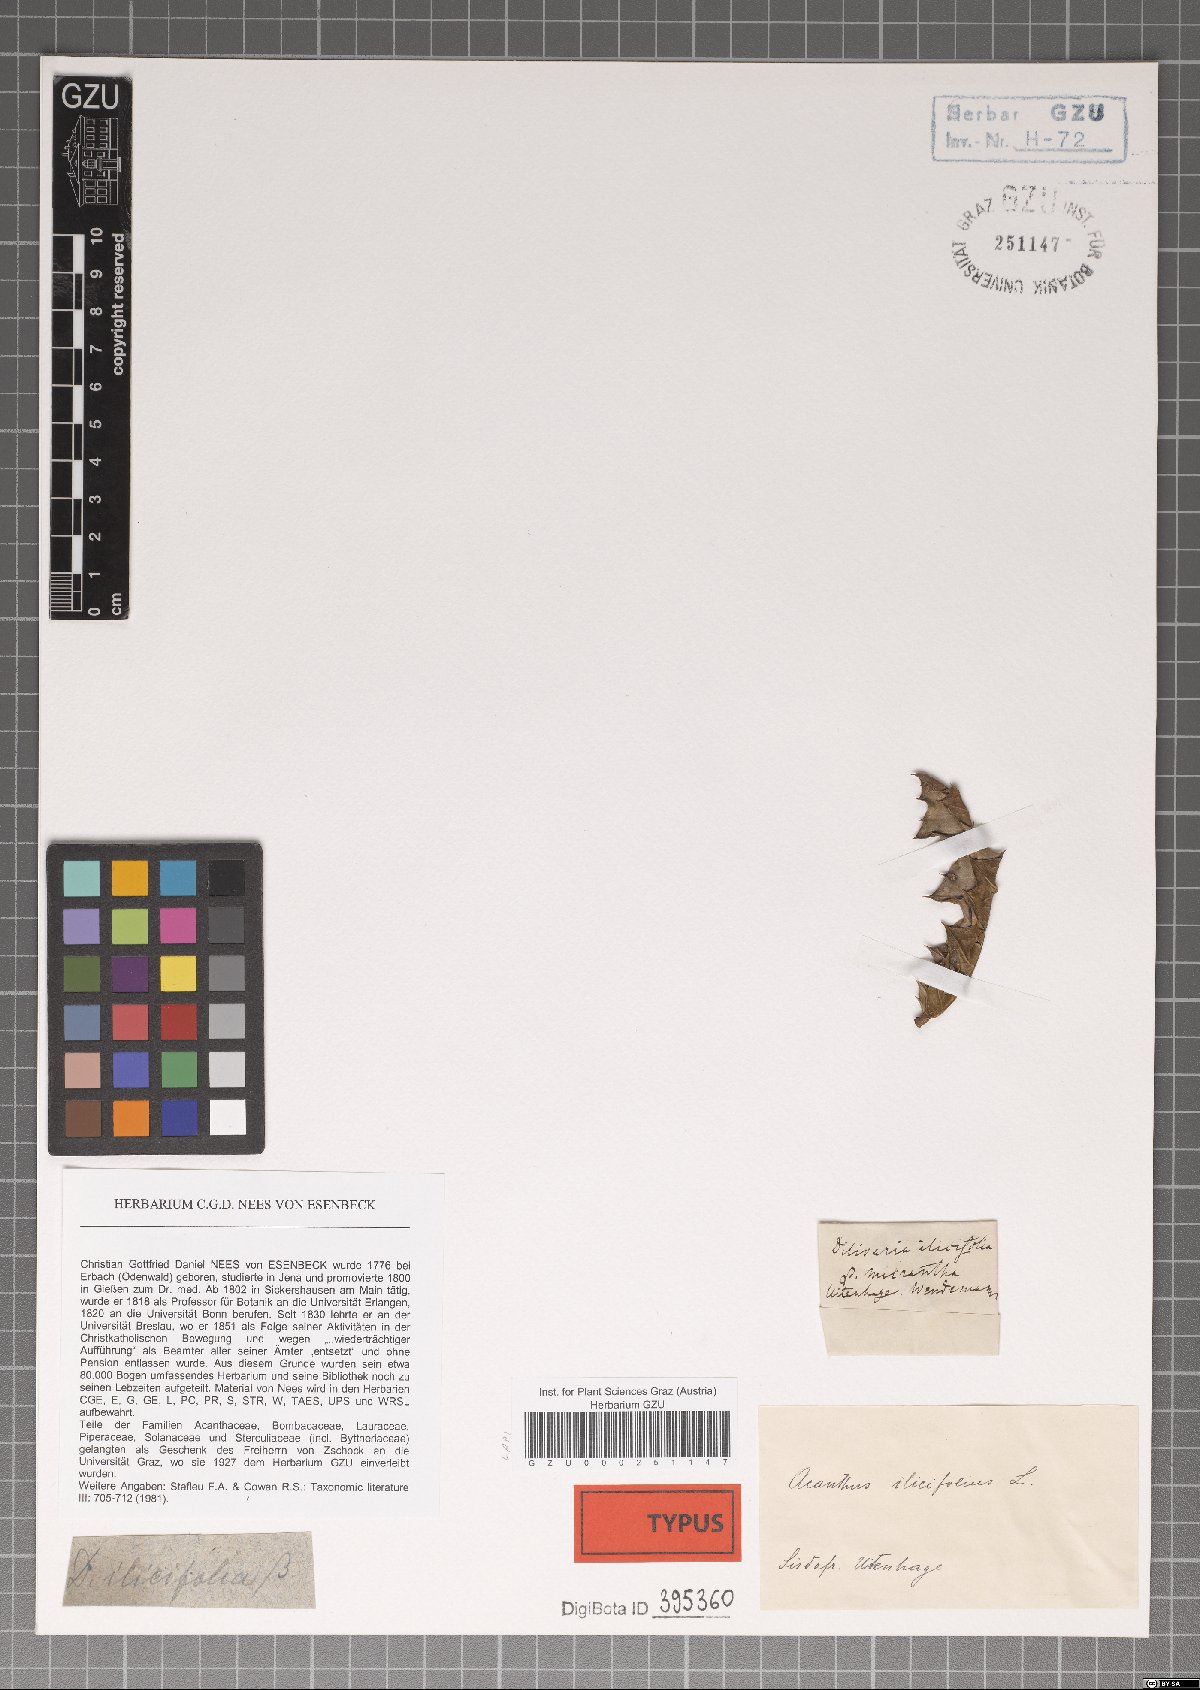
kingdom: Plantae
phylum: Tracheophyta
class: Magnoliopsida
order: Lamiales
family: Acanthaceae
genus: Acanthus
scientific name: Acanthus ilicifolius
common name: Holy mangrove
